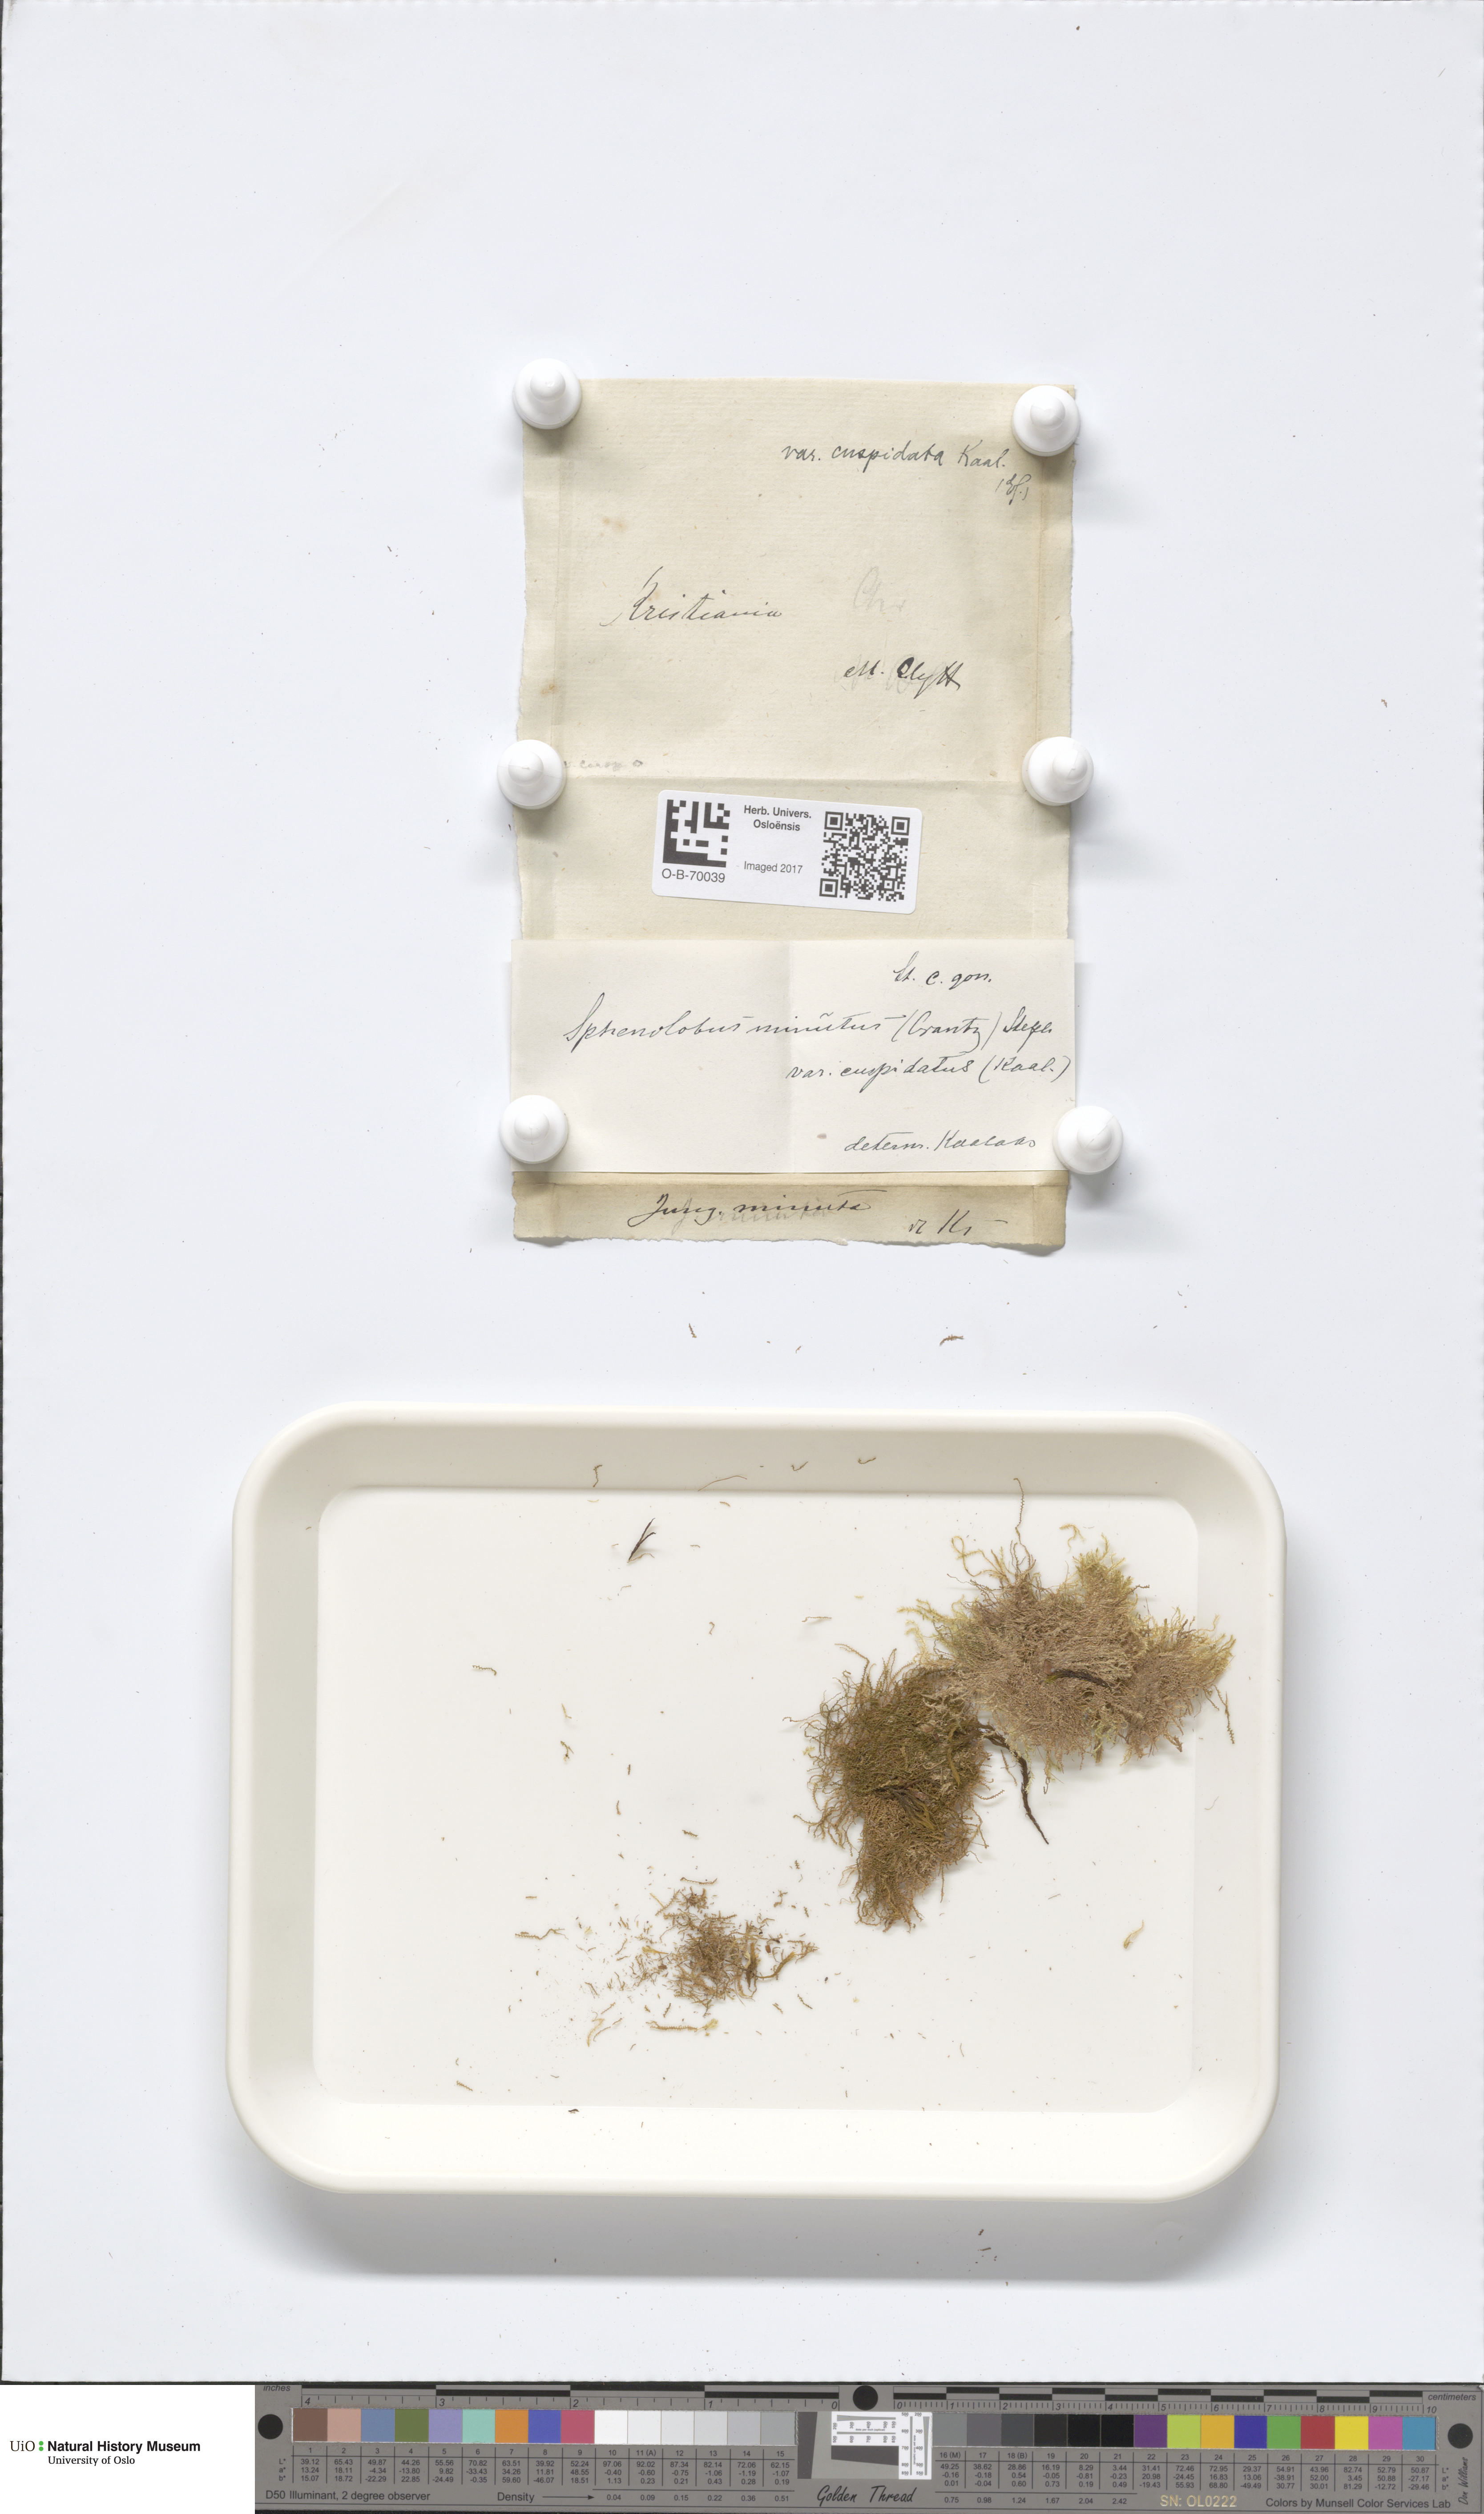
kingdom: Plantae
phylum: Marchantiophyta
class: Jungermanniopsida
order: Jungermanniales
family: Anastrophyllaceae
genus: Sphenolobus
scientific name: Sphenolobus minutus
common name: Comb notchwort
